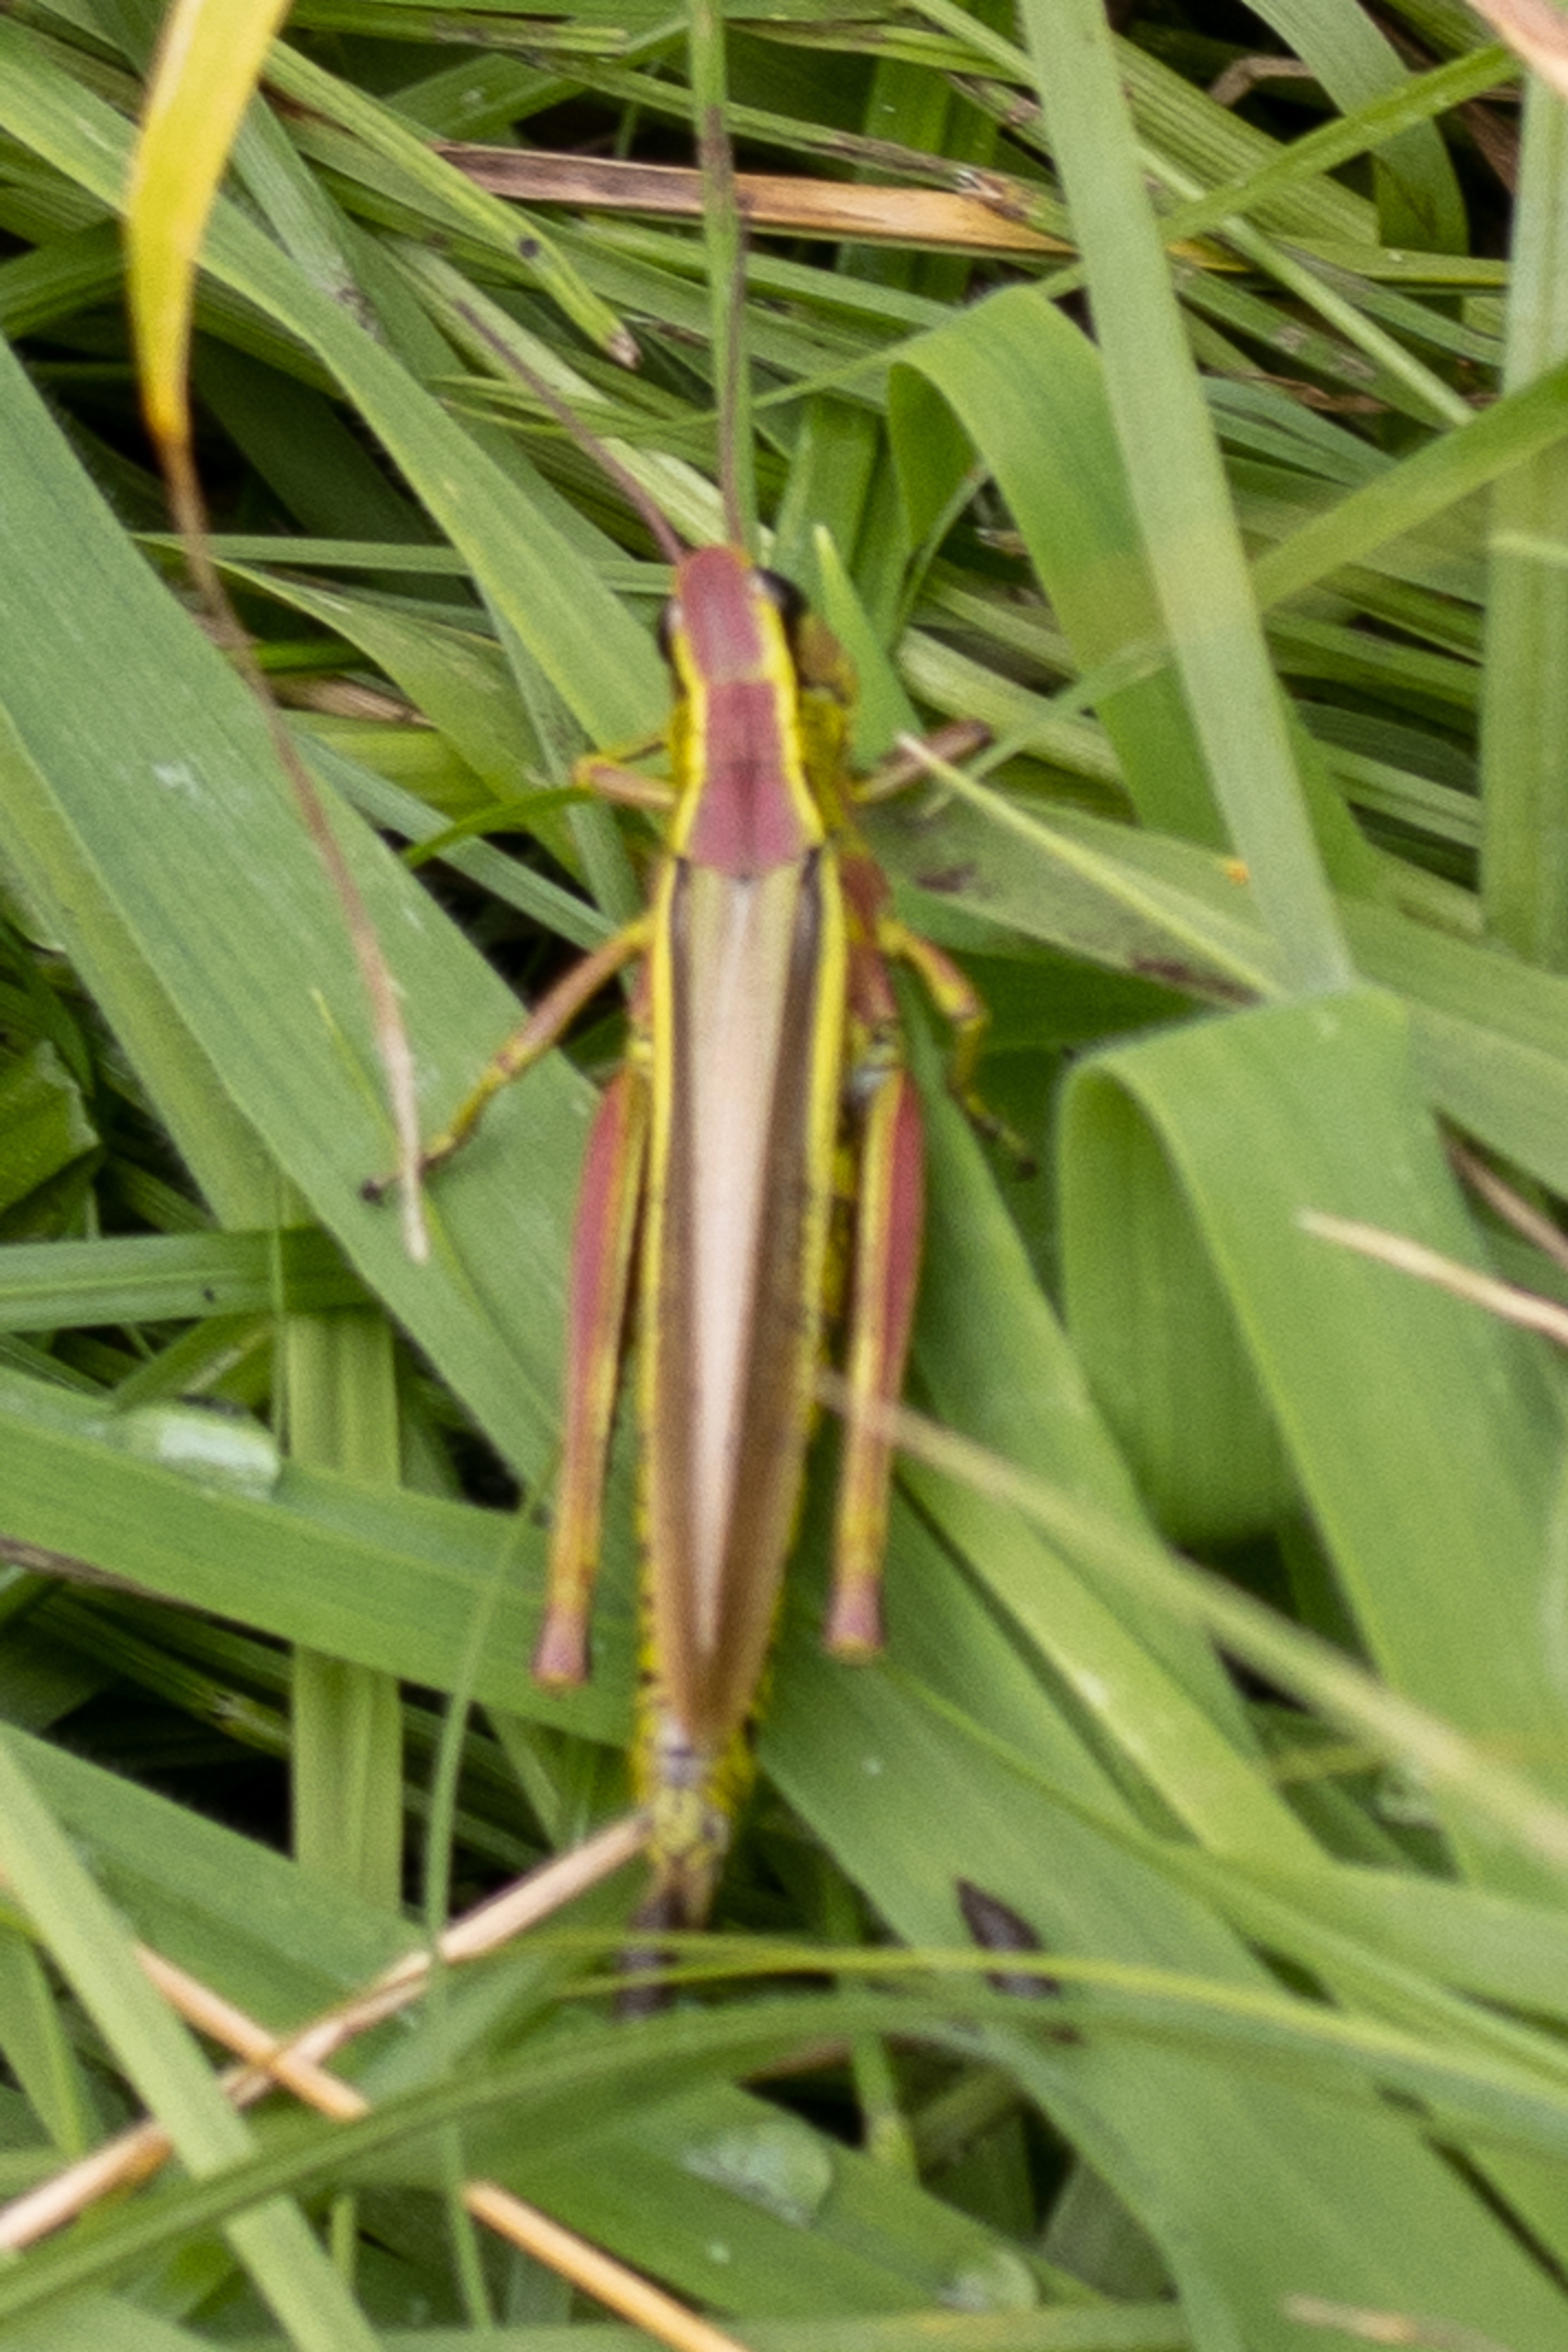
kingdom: Animalia
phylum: Arthropoda
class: Insecta
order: Orthoptera
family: Acrididae
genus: Stethophyma
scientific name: Stethophyma grossum
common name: Sumpgræshoppe
